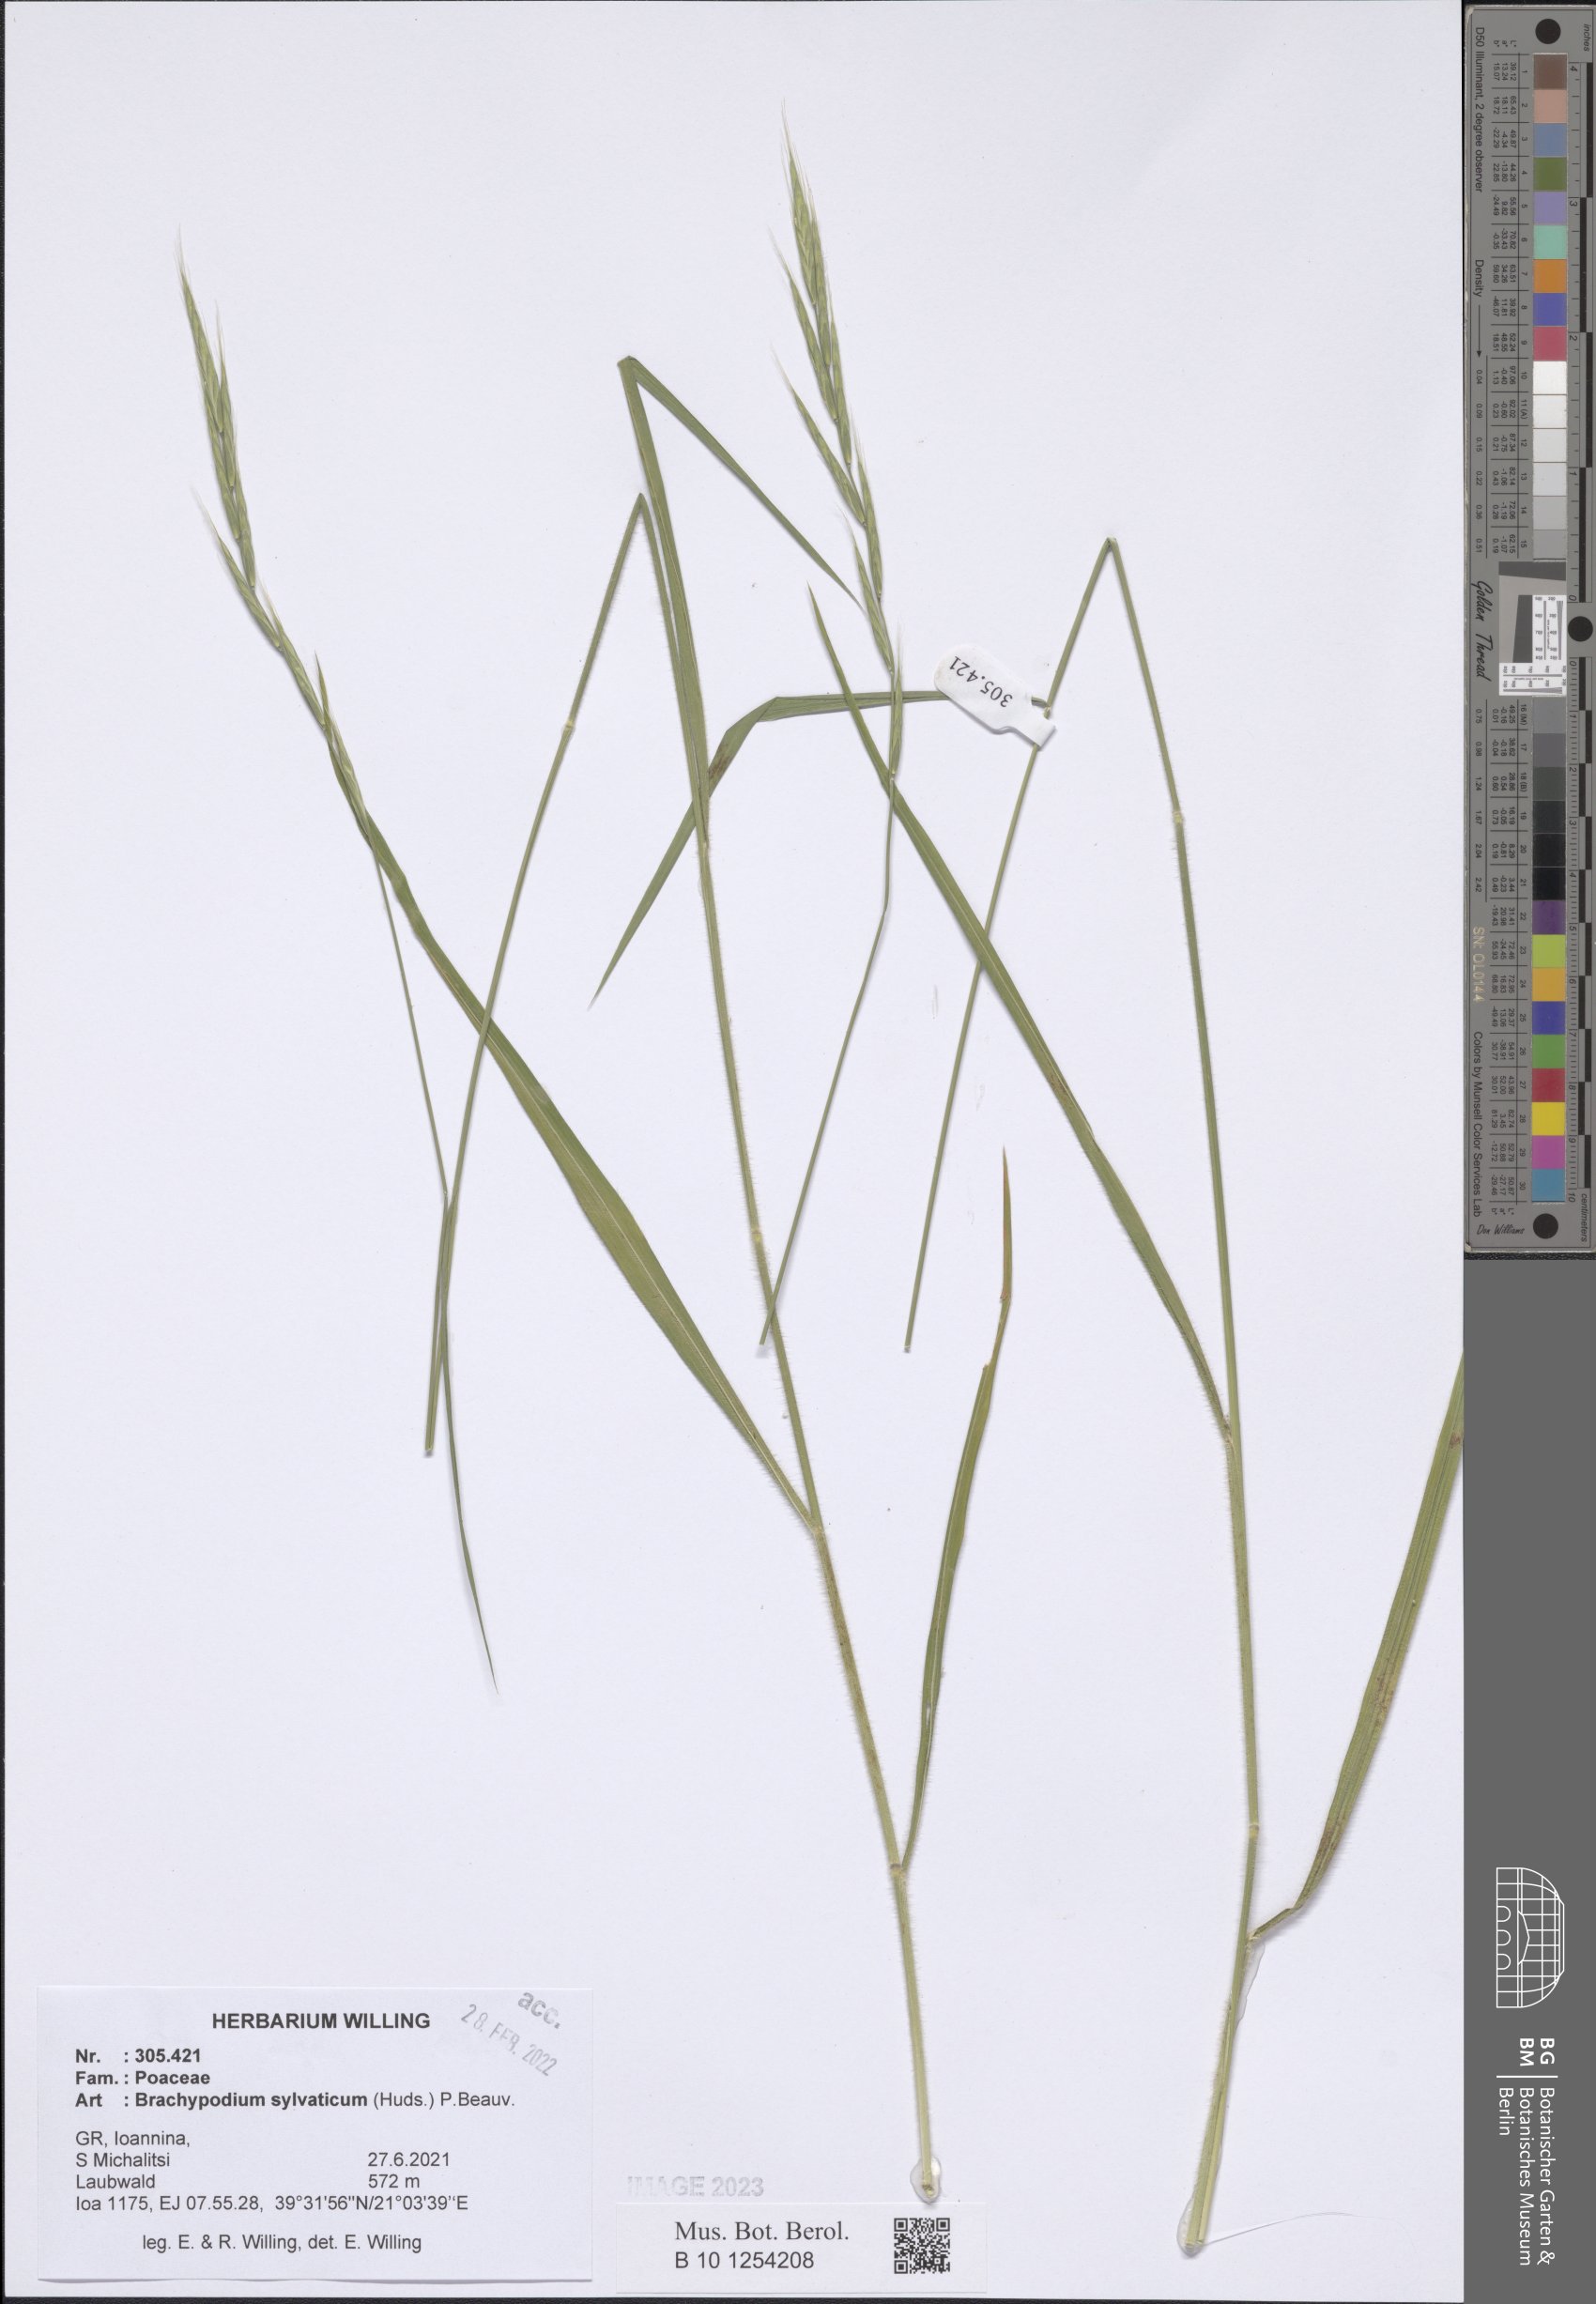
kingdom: Plantae
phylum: Tracheophyta
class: Liliopsida
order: Poales
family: Poaceae
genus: Brachypodium
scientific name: Brachypodium sylvaticum
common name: False-brome
